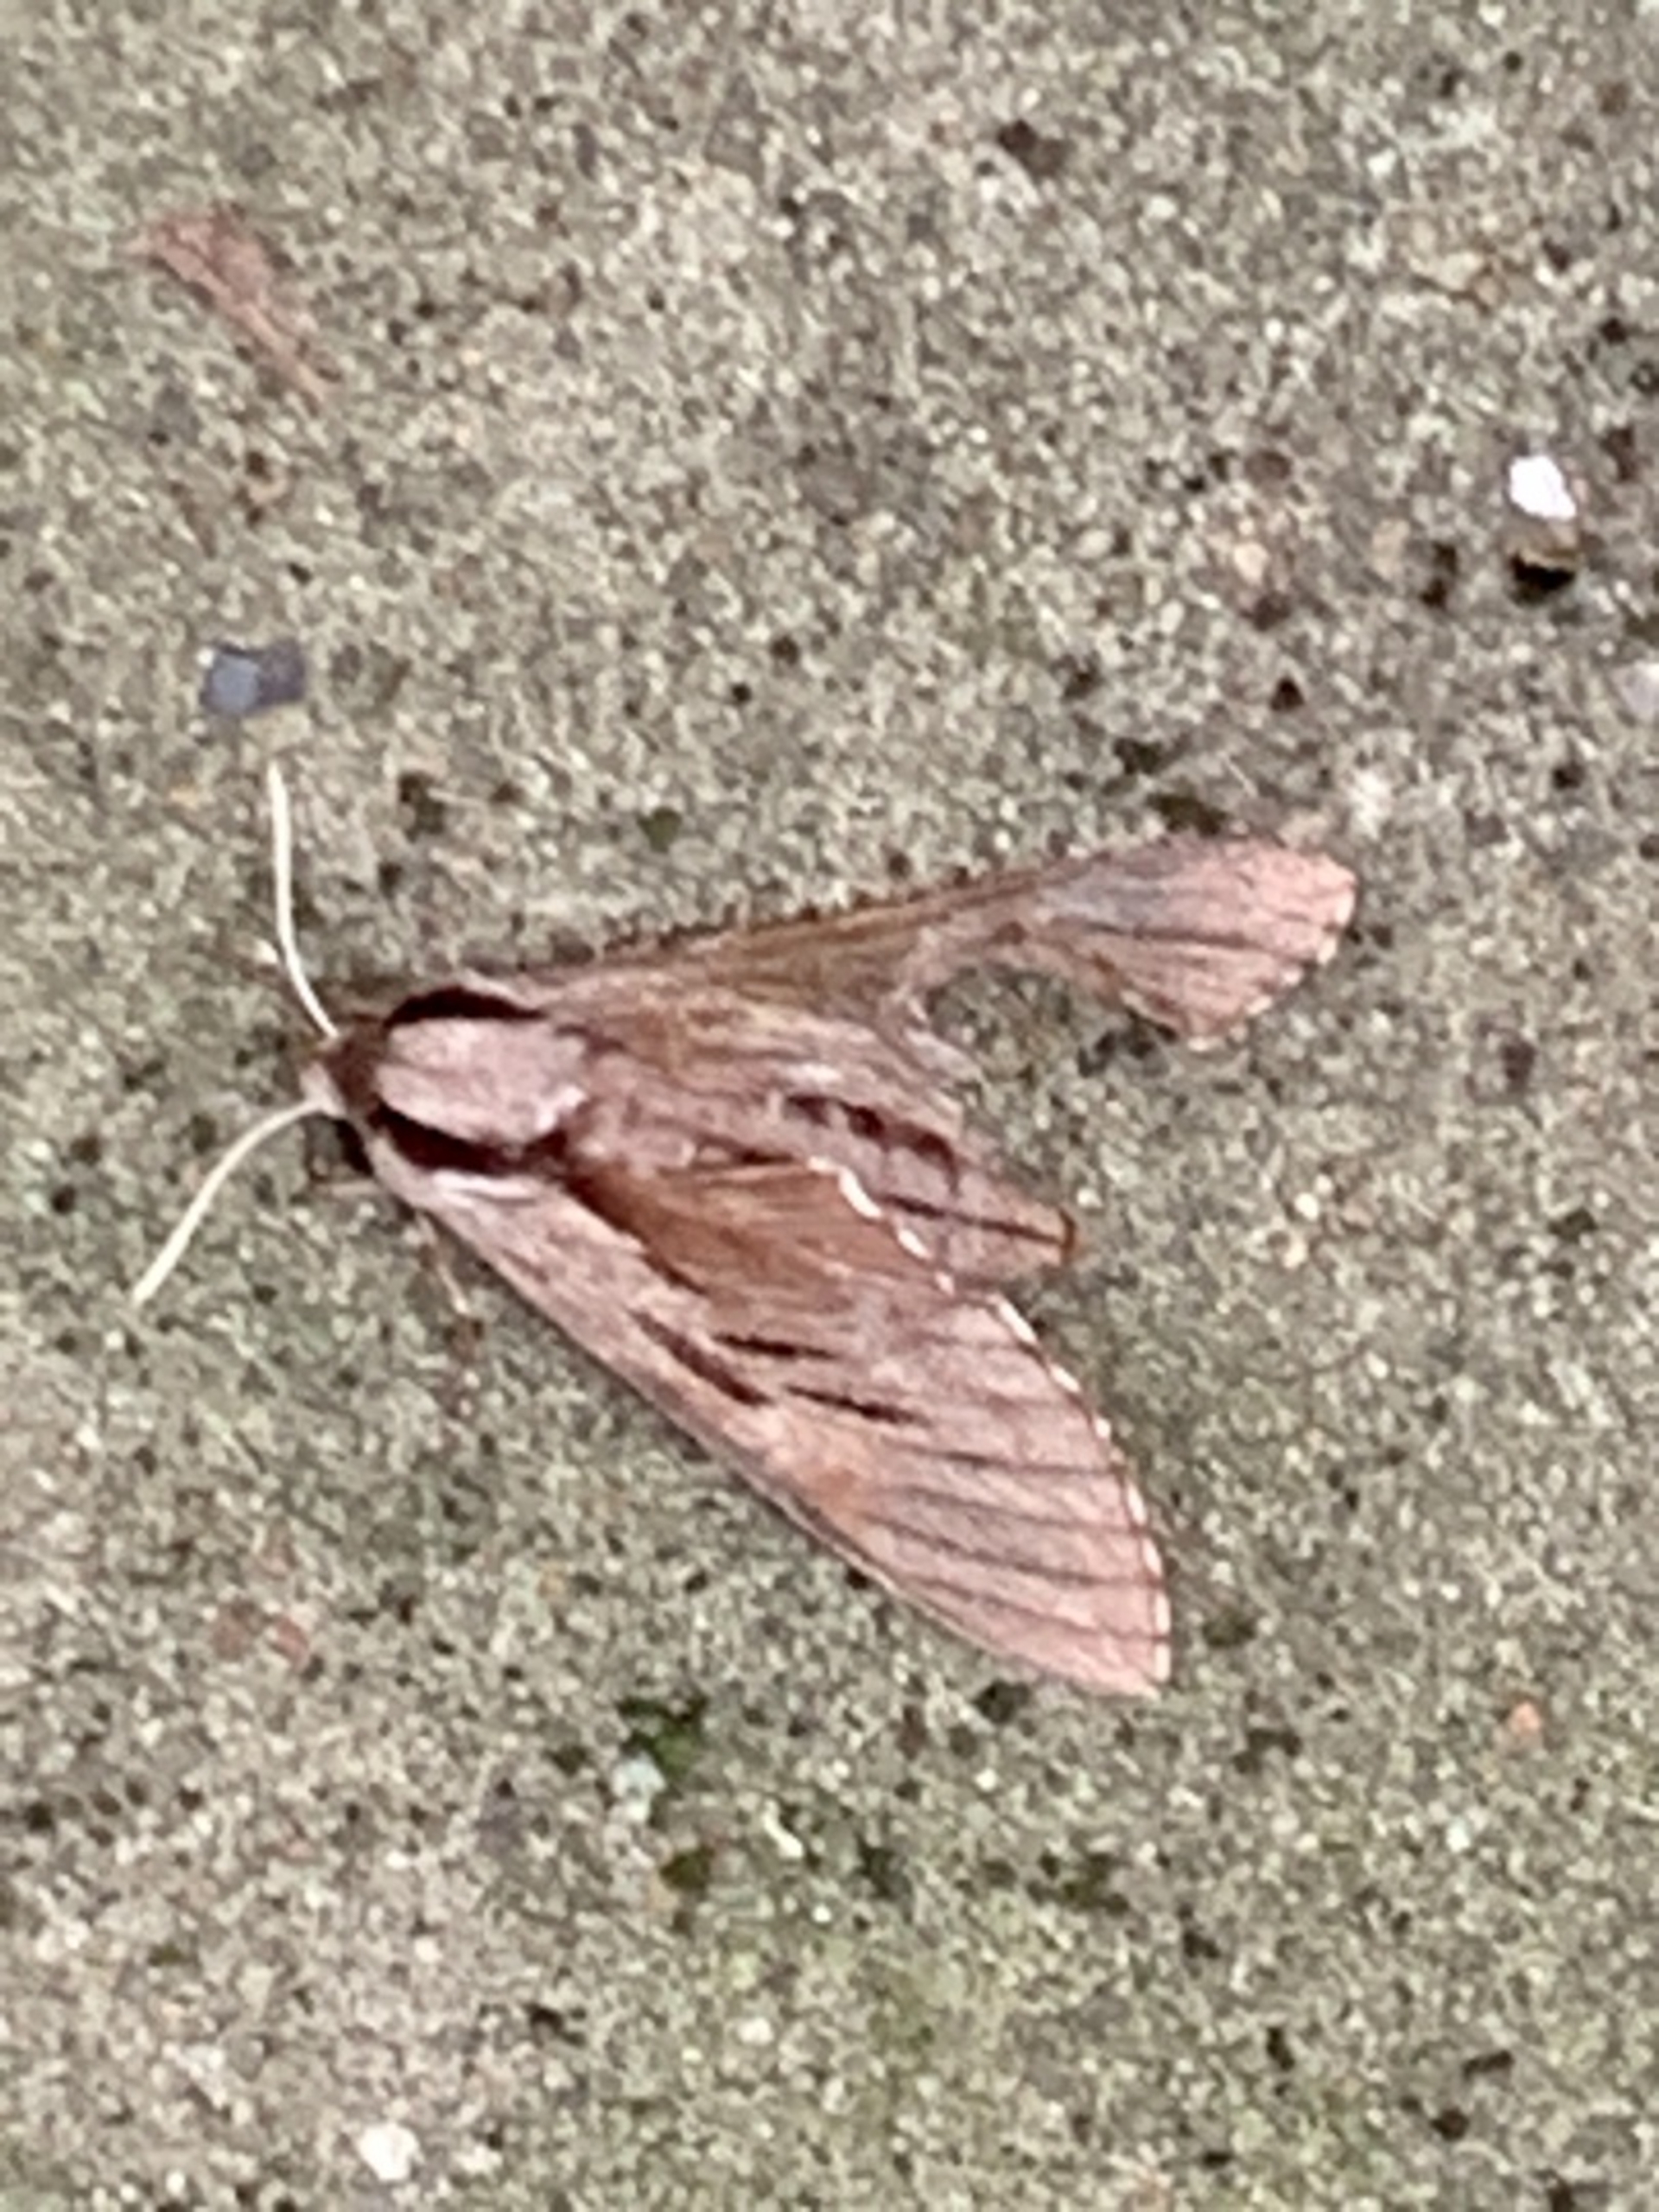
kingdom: Animalia
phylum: Arthropoda
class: Insecta
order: Lepidoptera
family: Sphingidae
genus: Sphinx
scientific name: Sphinx pinastri
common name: Fyrresværmer
